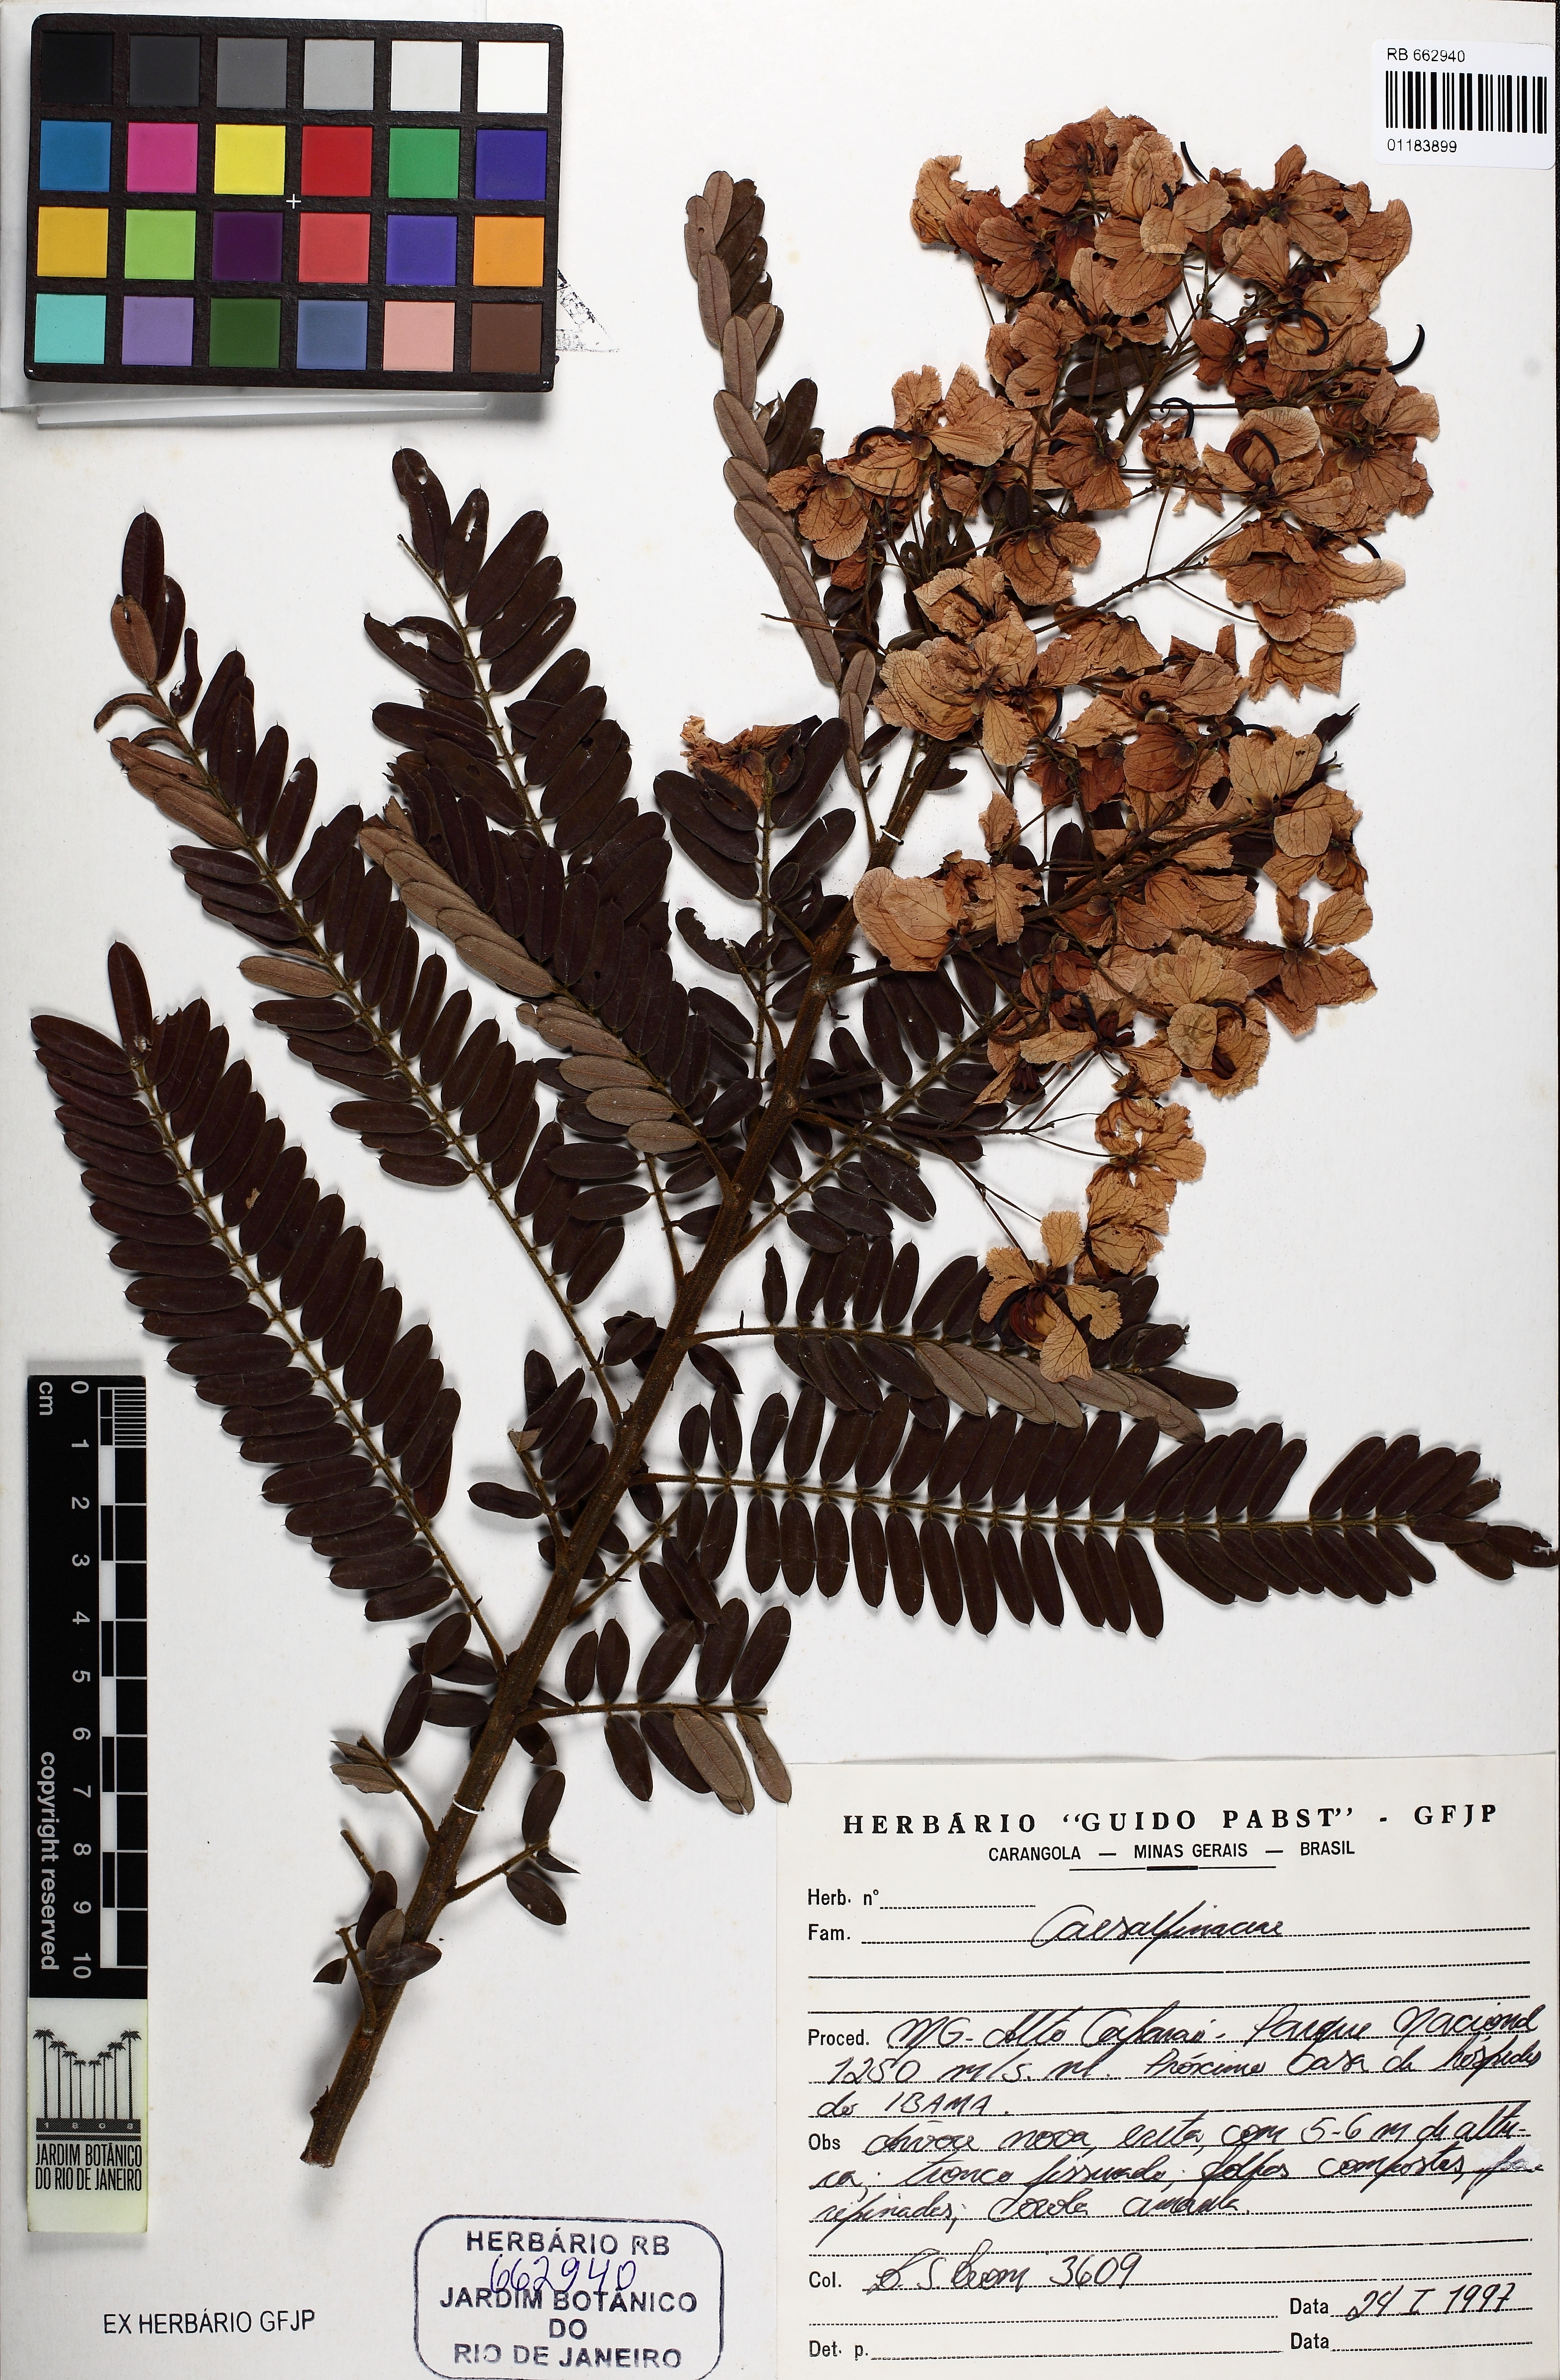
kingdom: Plantae
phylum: Tracheophyta
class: Magnoliopsida
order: Fabales
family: Fabaceae
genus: Senna
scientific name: Senna multijuga
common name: False sicklepod
